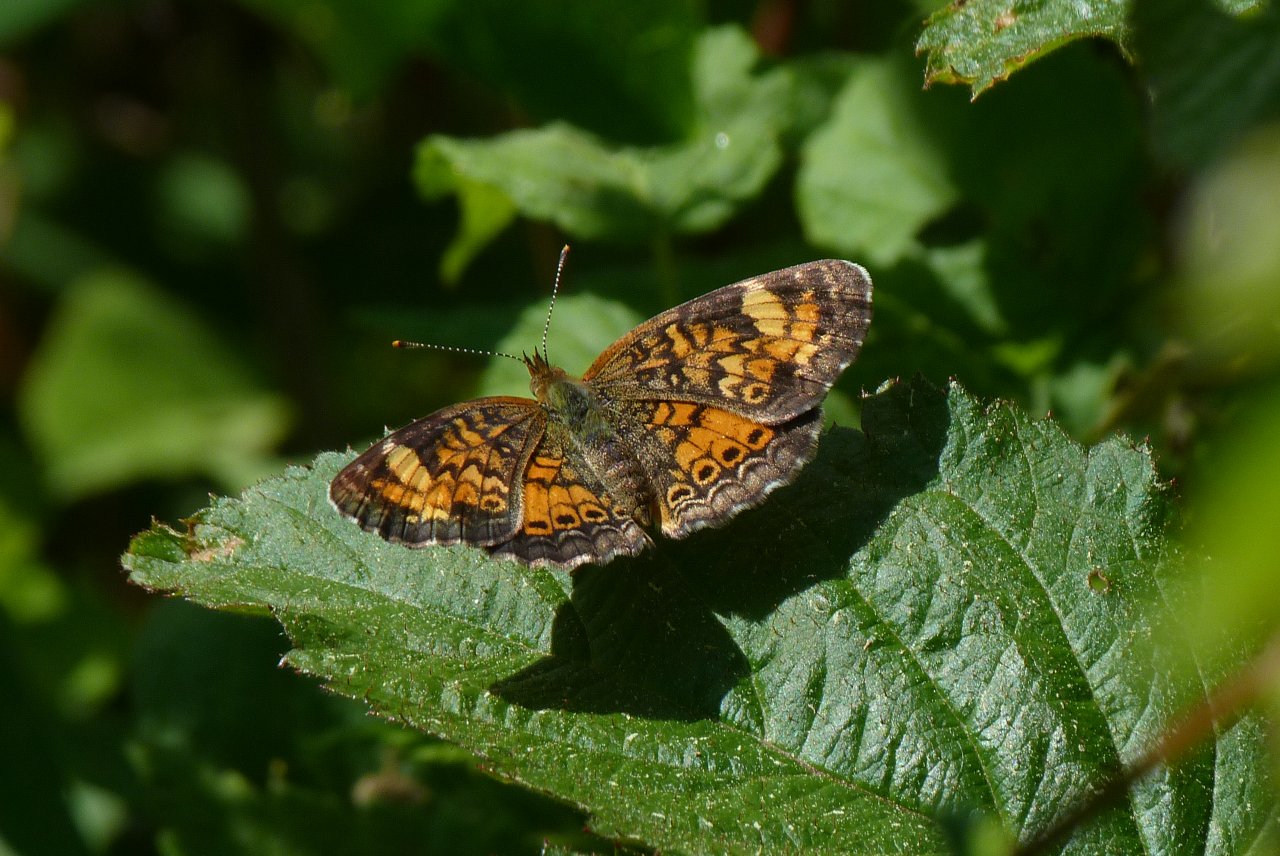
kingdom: Animalia
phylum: Arthropoda
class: Insecta
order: Lepidoptera
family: Nymphalidae
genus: Phyciodes
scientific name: Phyciodes tharos
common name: Pearl Crescent
